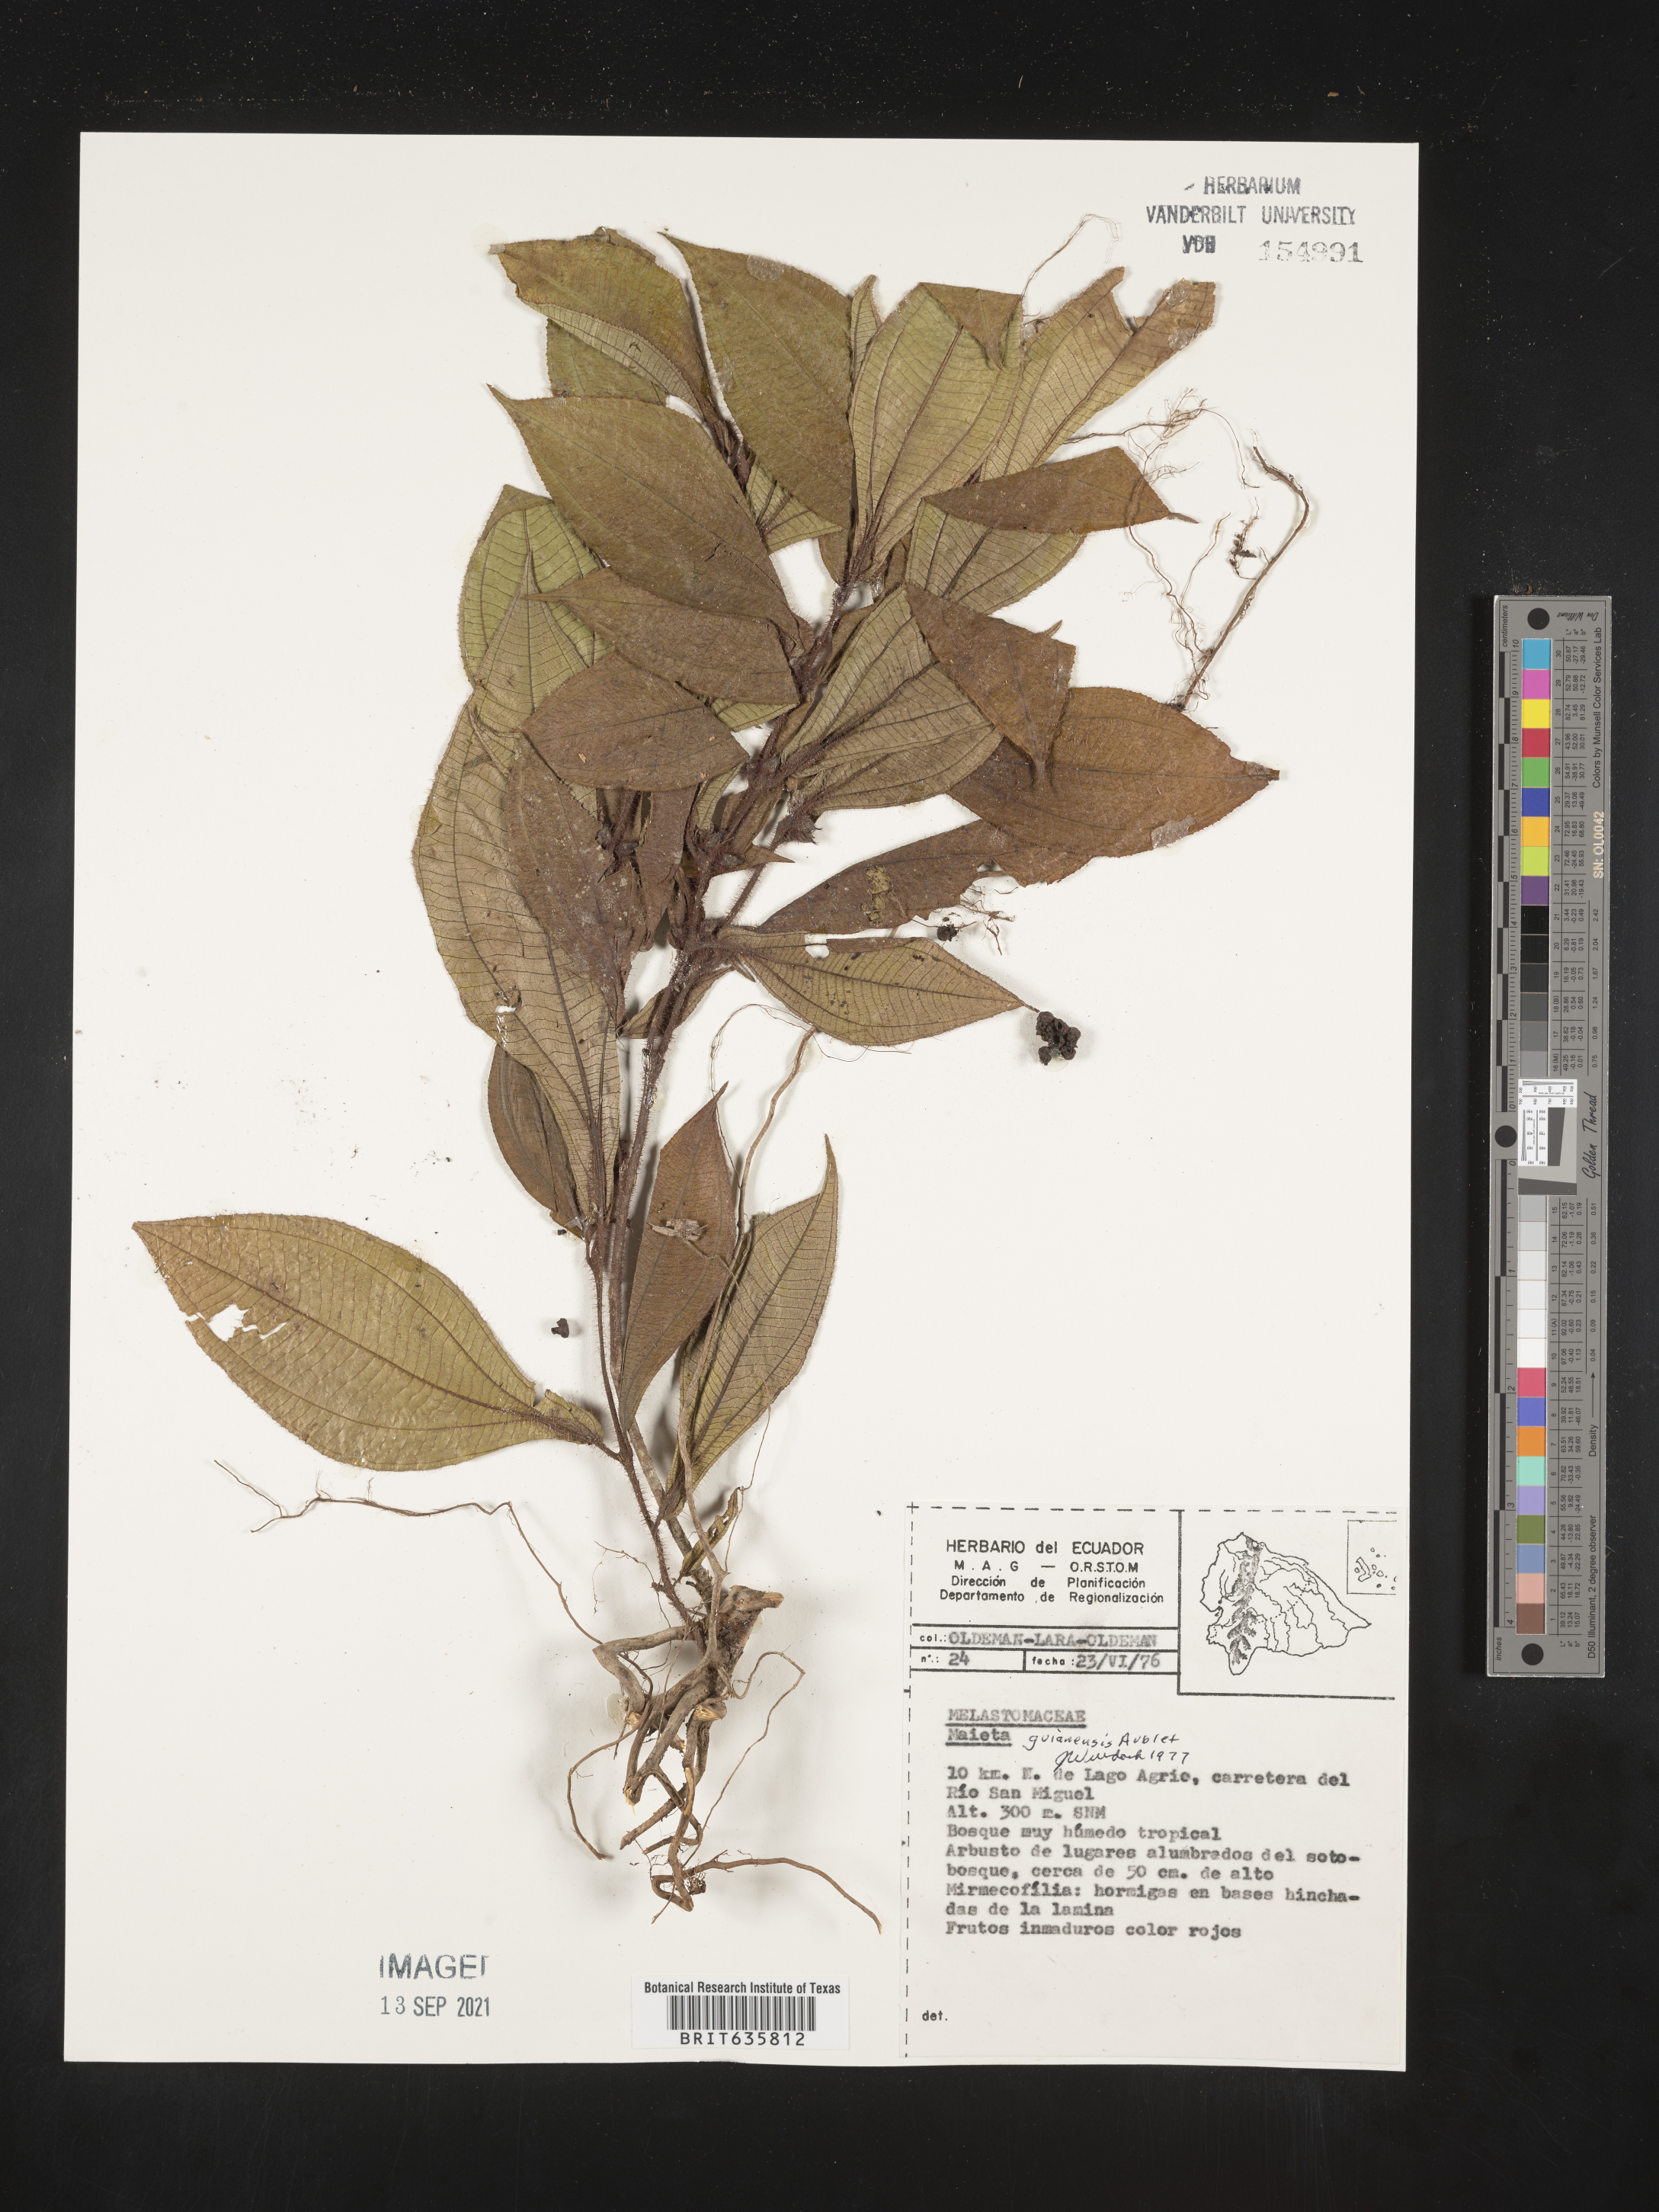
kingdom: Plantae
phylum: Tracheophyta
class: Magnoliopsida
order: Myrtales
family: Melastomataceae
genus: Miconia
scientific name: Miconia
